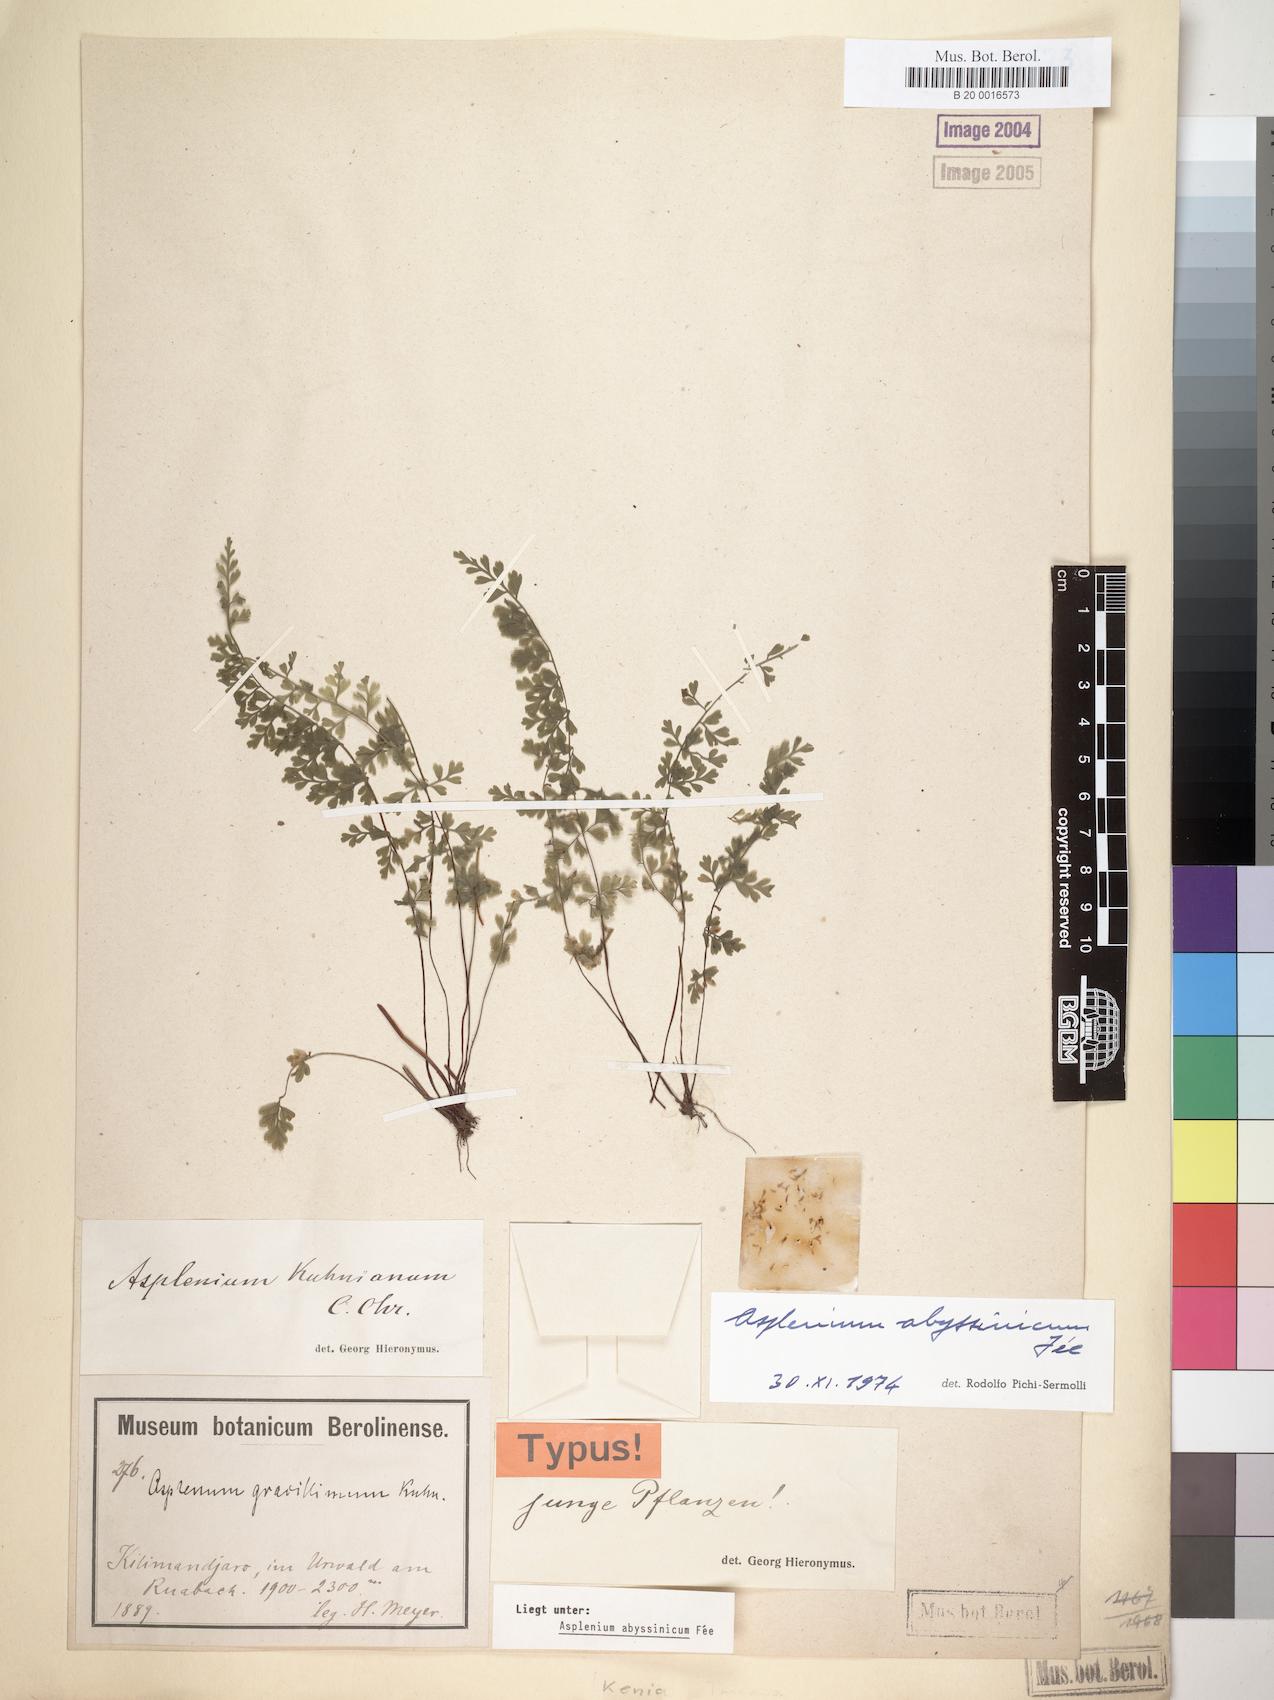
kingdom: Plantae
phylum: Tracheophyta
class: Polypodiopsida
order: Polypodiales
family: Aspleniaceae
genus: Asplenium
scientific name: Asplenium abyssinicum
